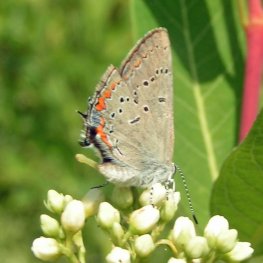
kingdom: Animalia
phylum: Arthropoda
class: Insecta
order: Lepidoptera
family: Lycaenidae
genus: Strymon
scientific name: Strymon acadica
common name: Acadian Hairstreak
